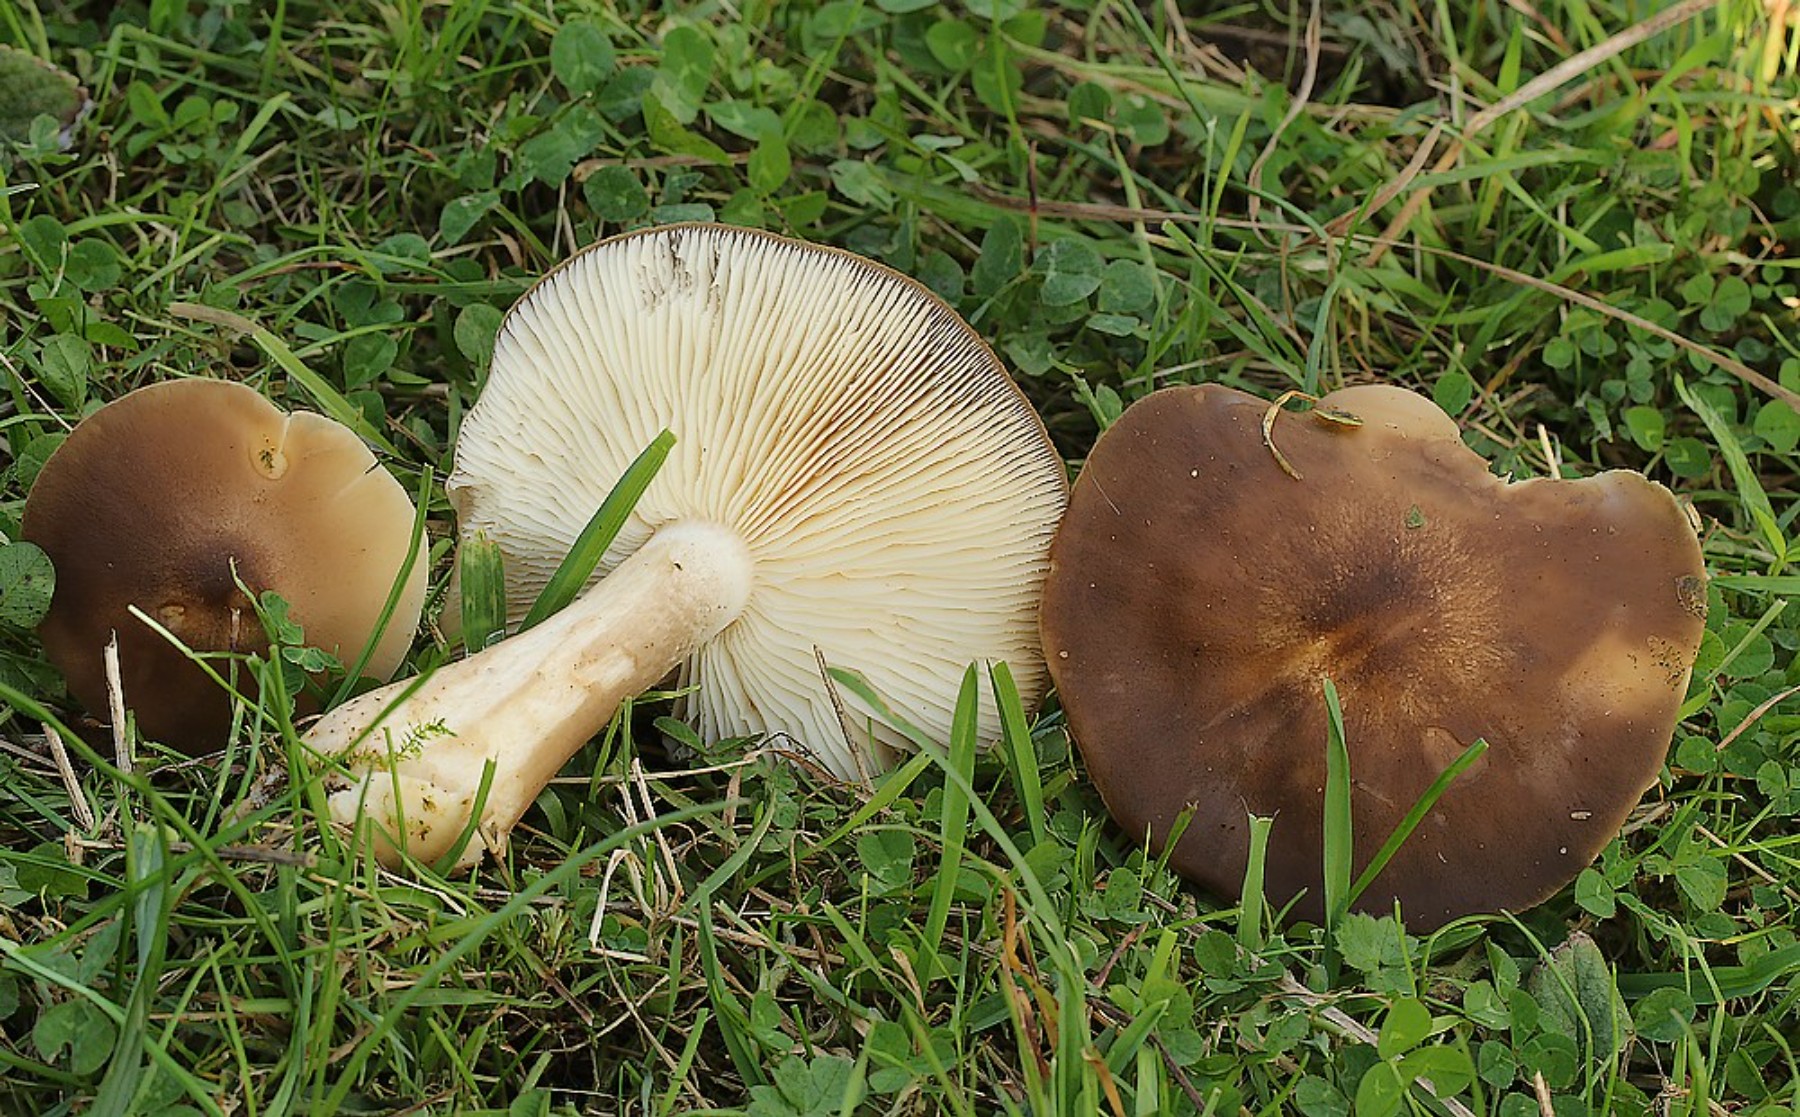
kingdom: Fungi
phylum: Basidiomycota
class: Agaricomycetes
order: Agaricales
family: Lyophyllaceae
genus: Lyophyllum
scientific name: Lyophyllum decastes
